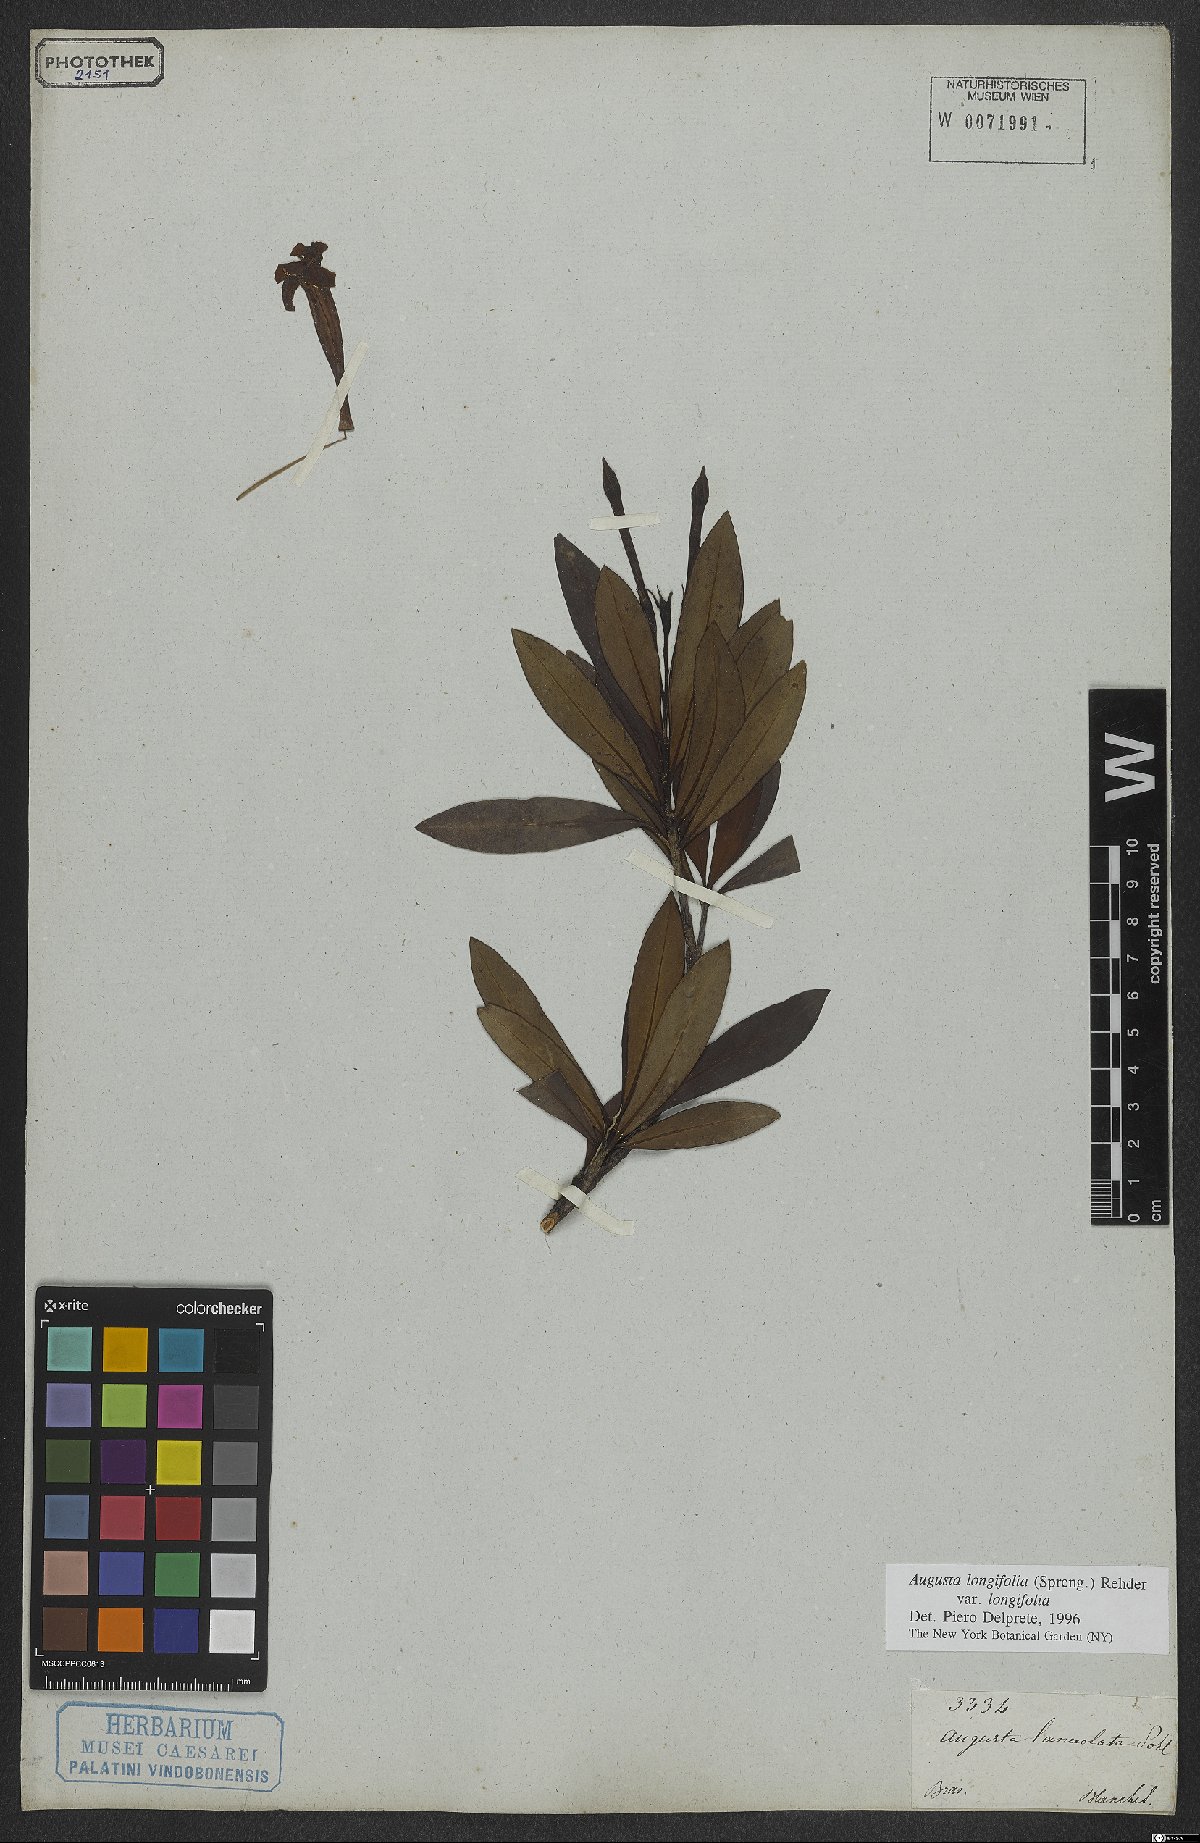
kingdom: Plantae
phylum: Tracheophyta
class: Magnoliopsida
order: Gentianales
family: Rubiaceae
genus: Augusta
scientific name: Augusta longifolia
